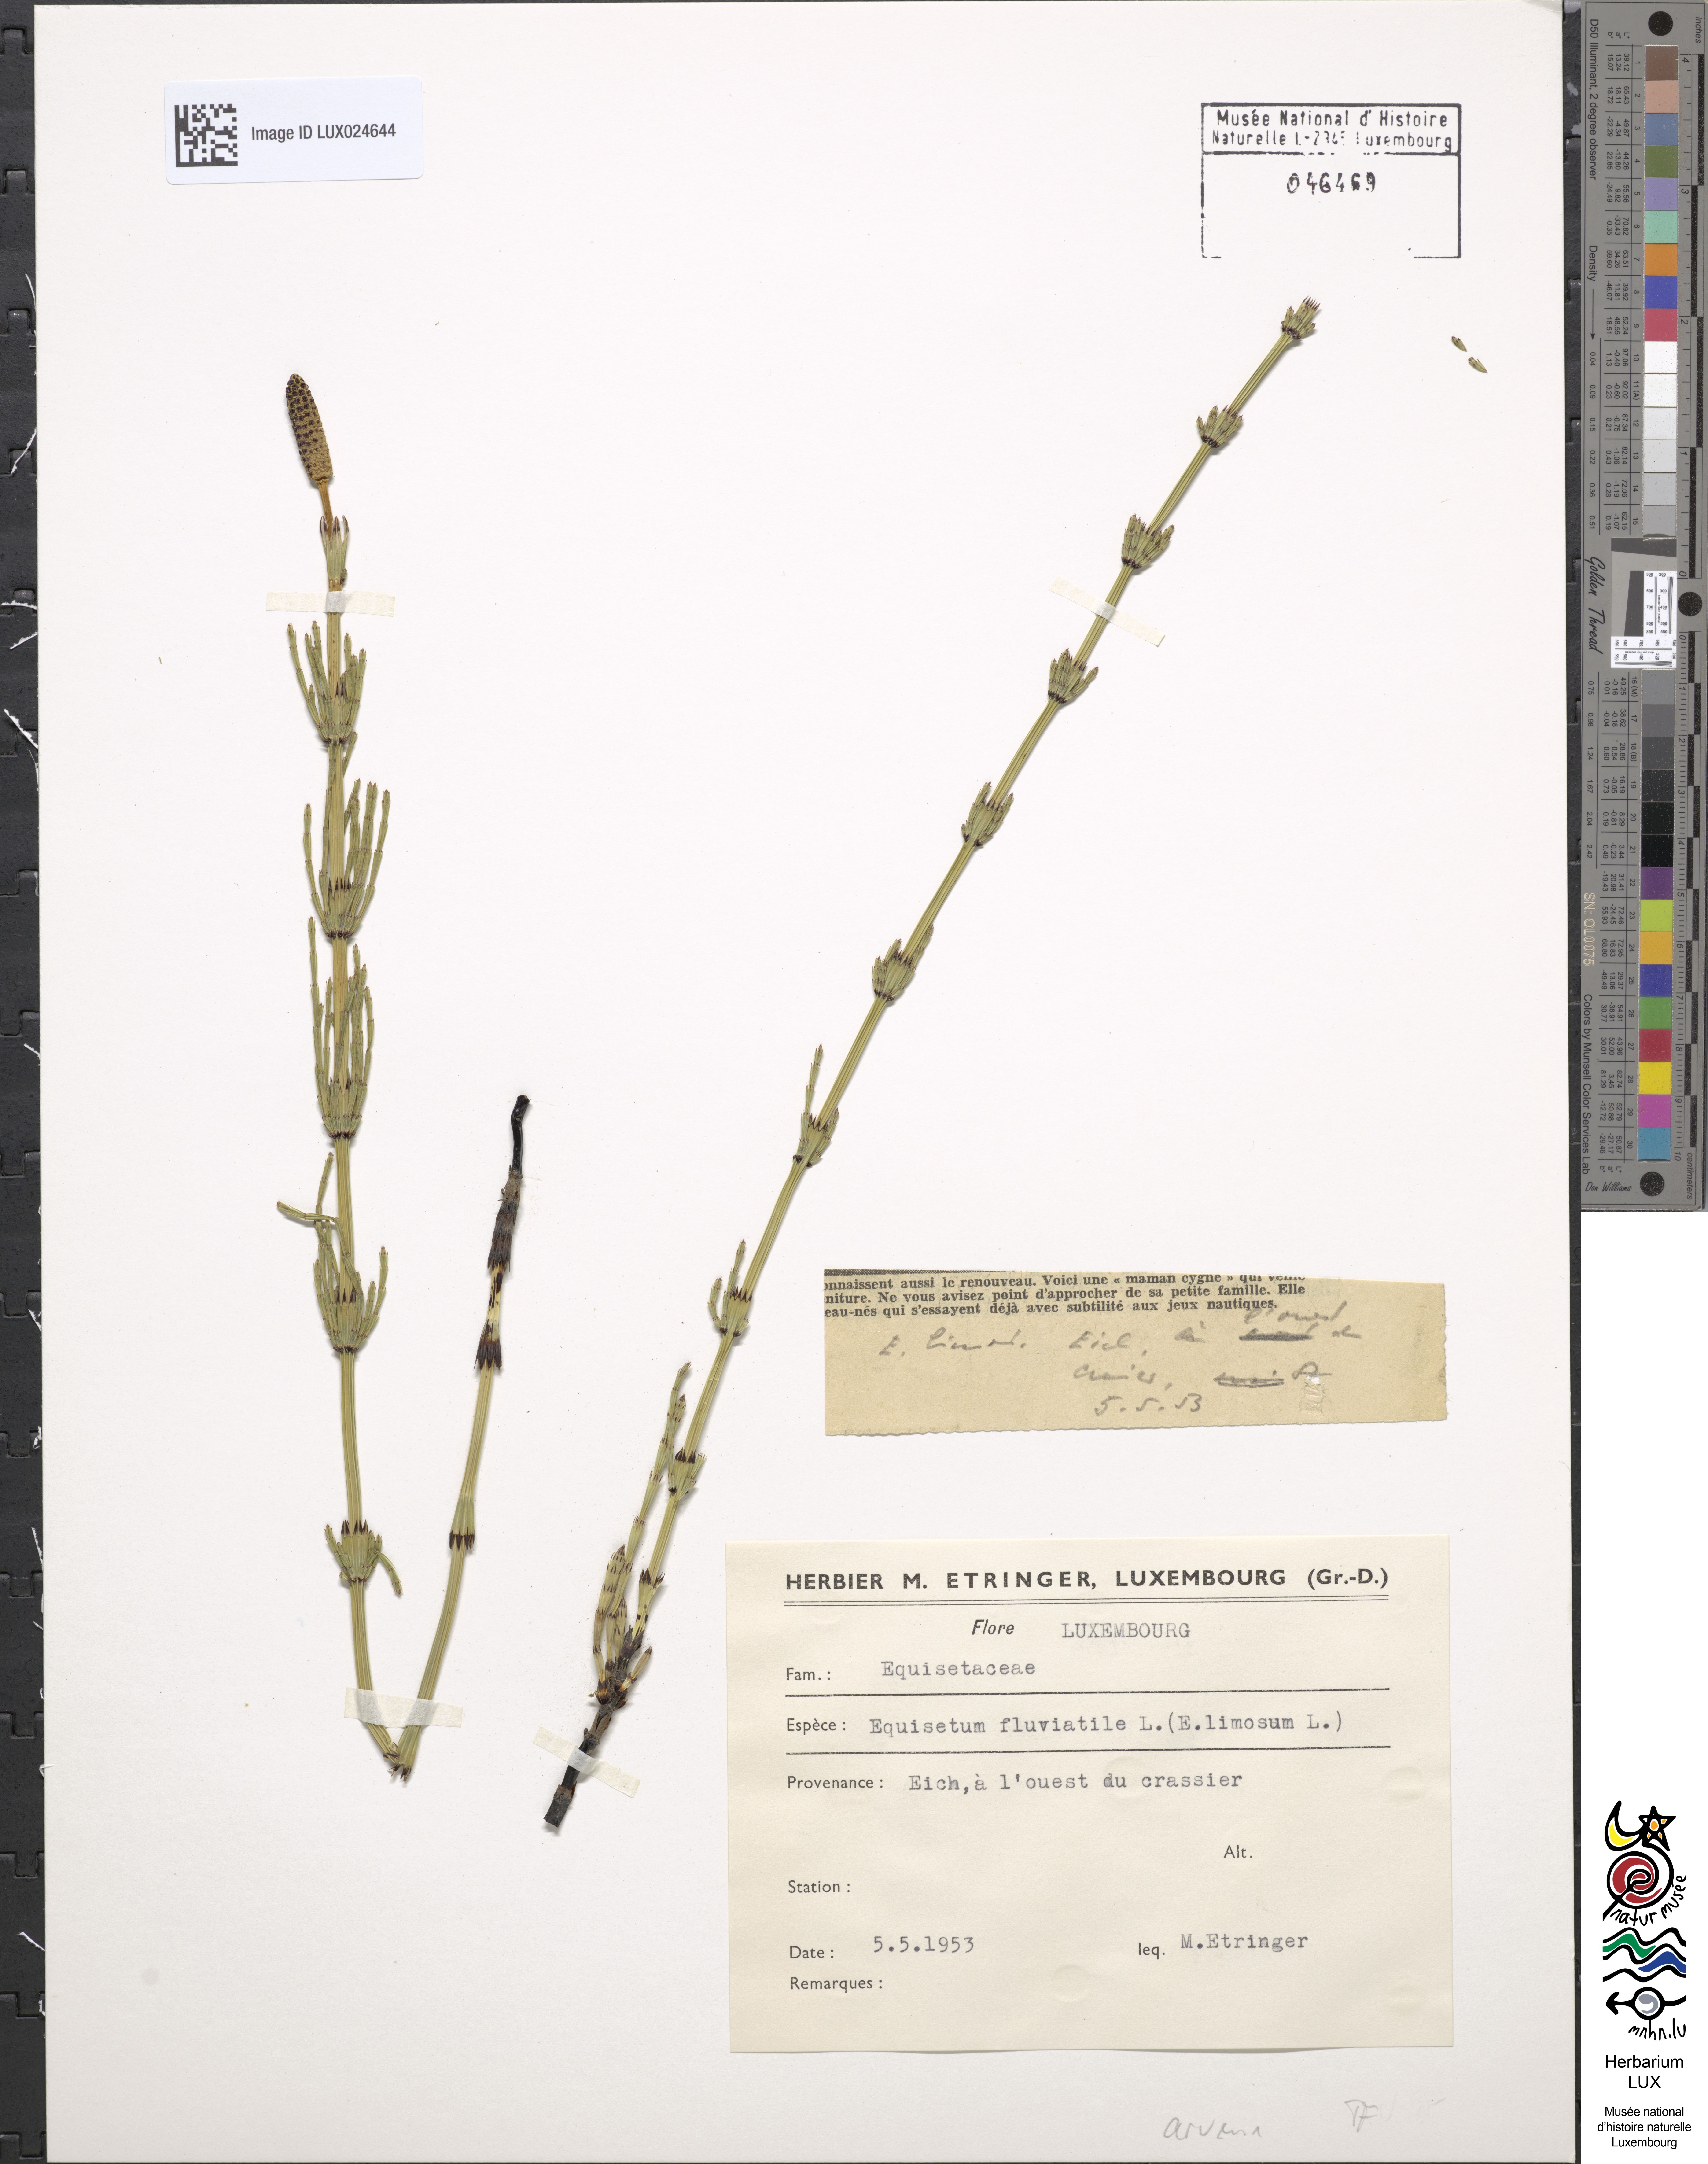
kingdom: Plantae
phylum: Tracheophyta
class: Polypodiopsida
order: Equisetales
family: Equisetaceae
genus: Equisetum
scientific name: Equisetum arvense
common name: Field horsetail
